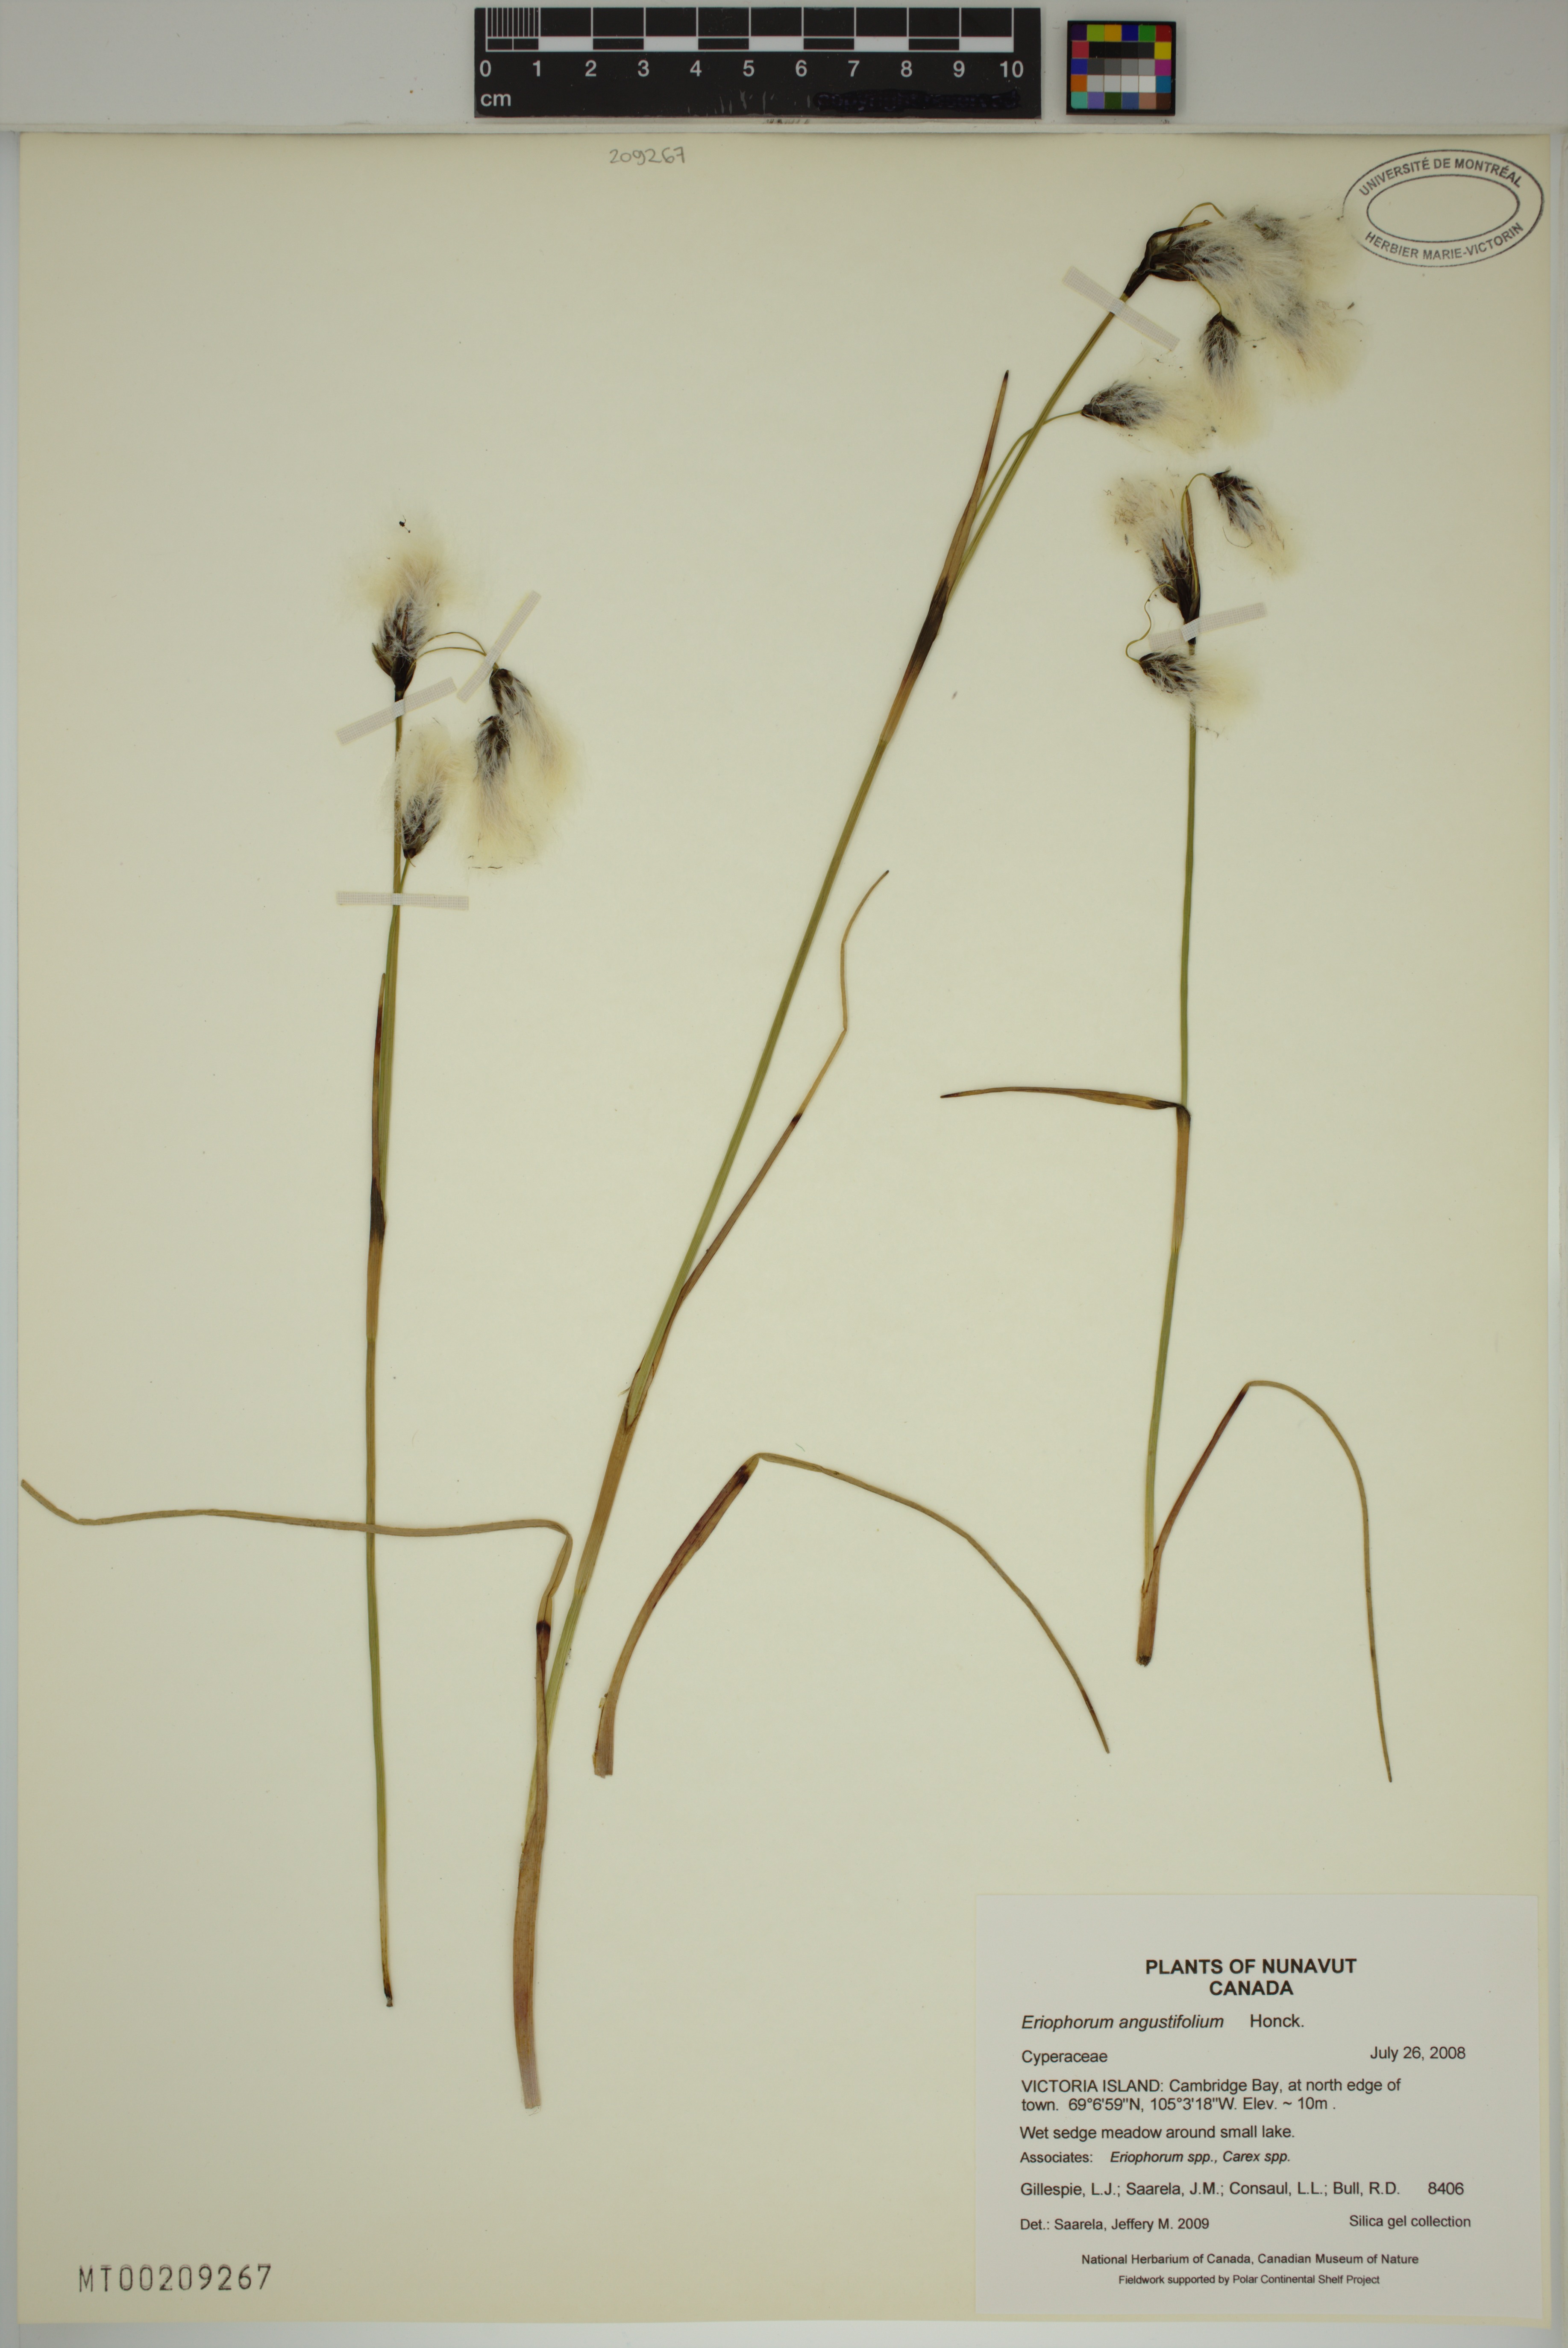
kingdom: Plantae
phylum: Tracheophyta
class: Liliopsida
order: Poales
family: Cyperaceae
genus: Eriophorum
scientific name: Eriophorum angustifolium
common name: Common cottongrass
